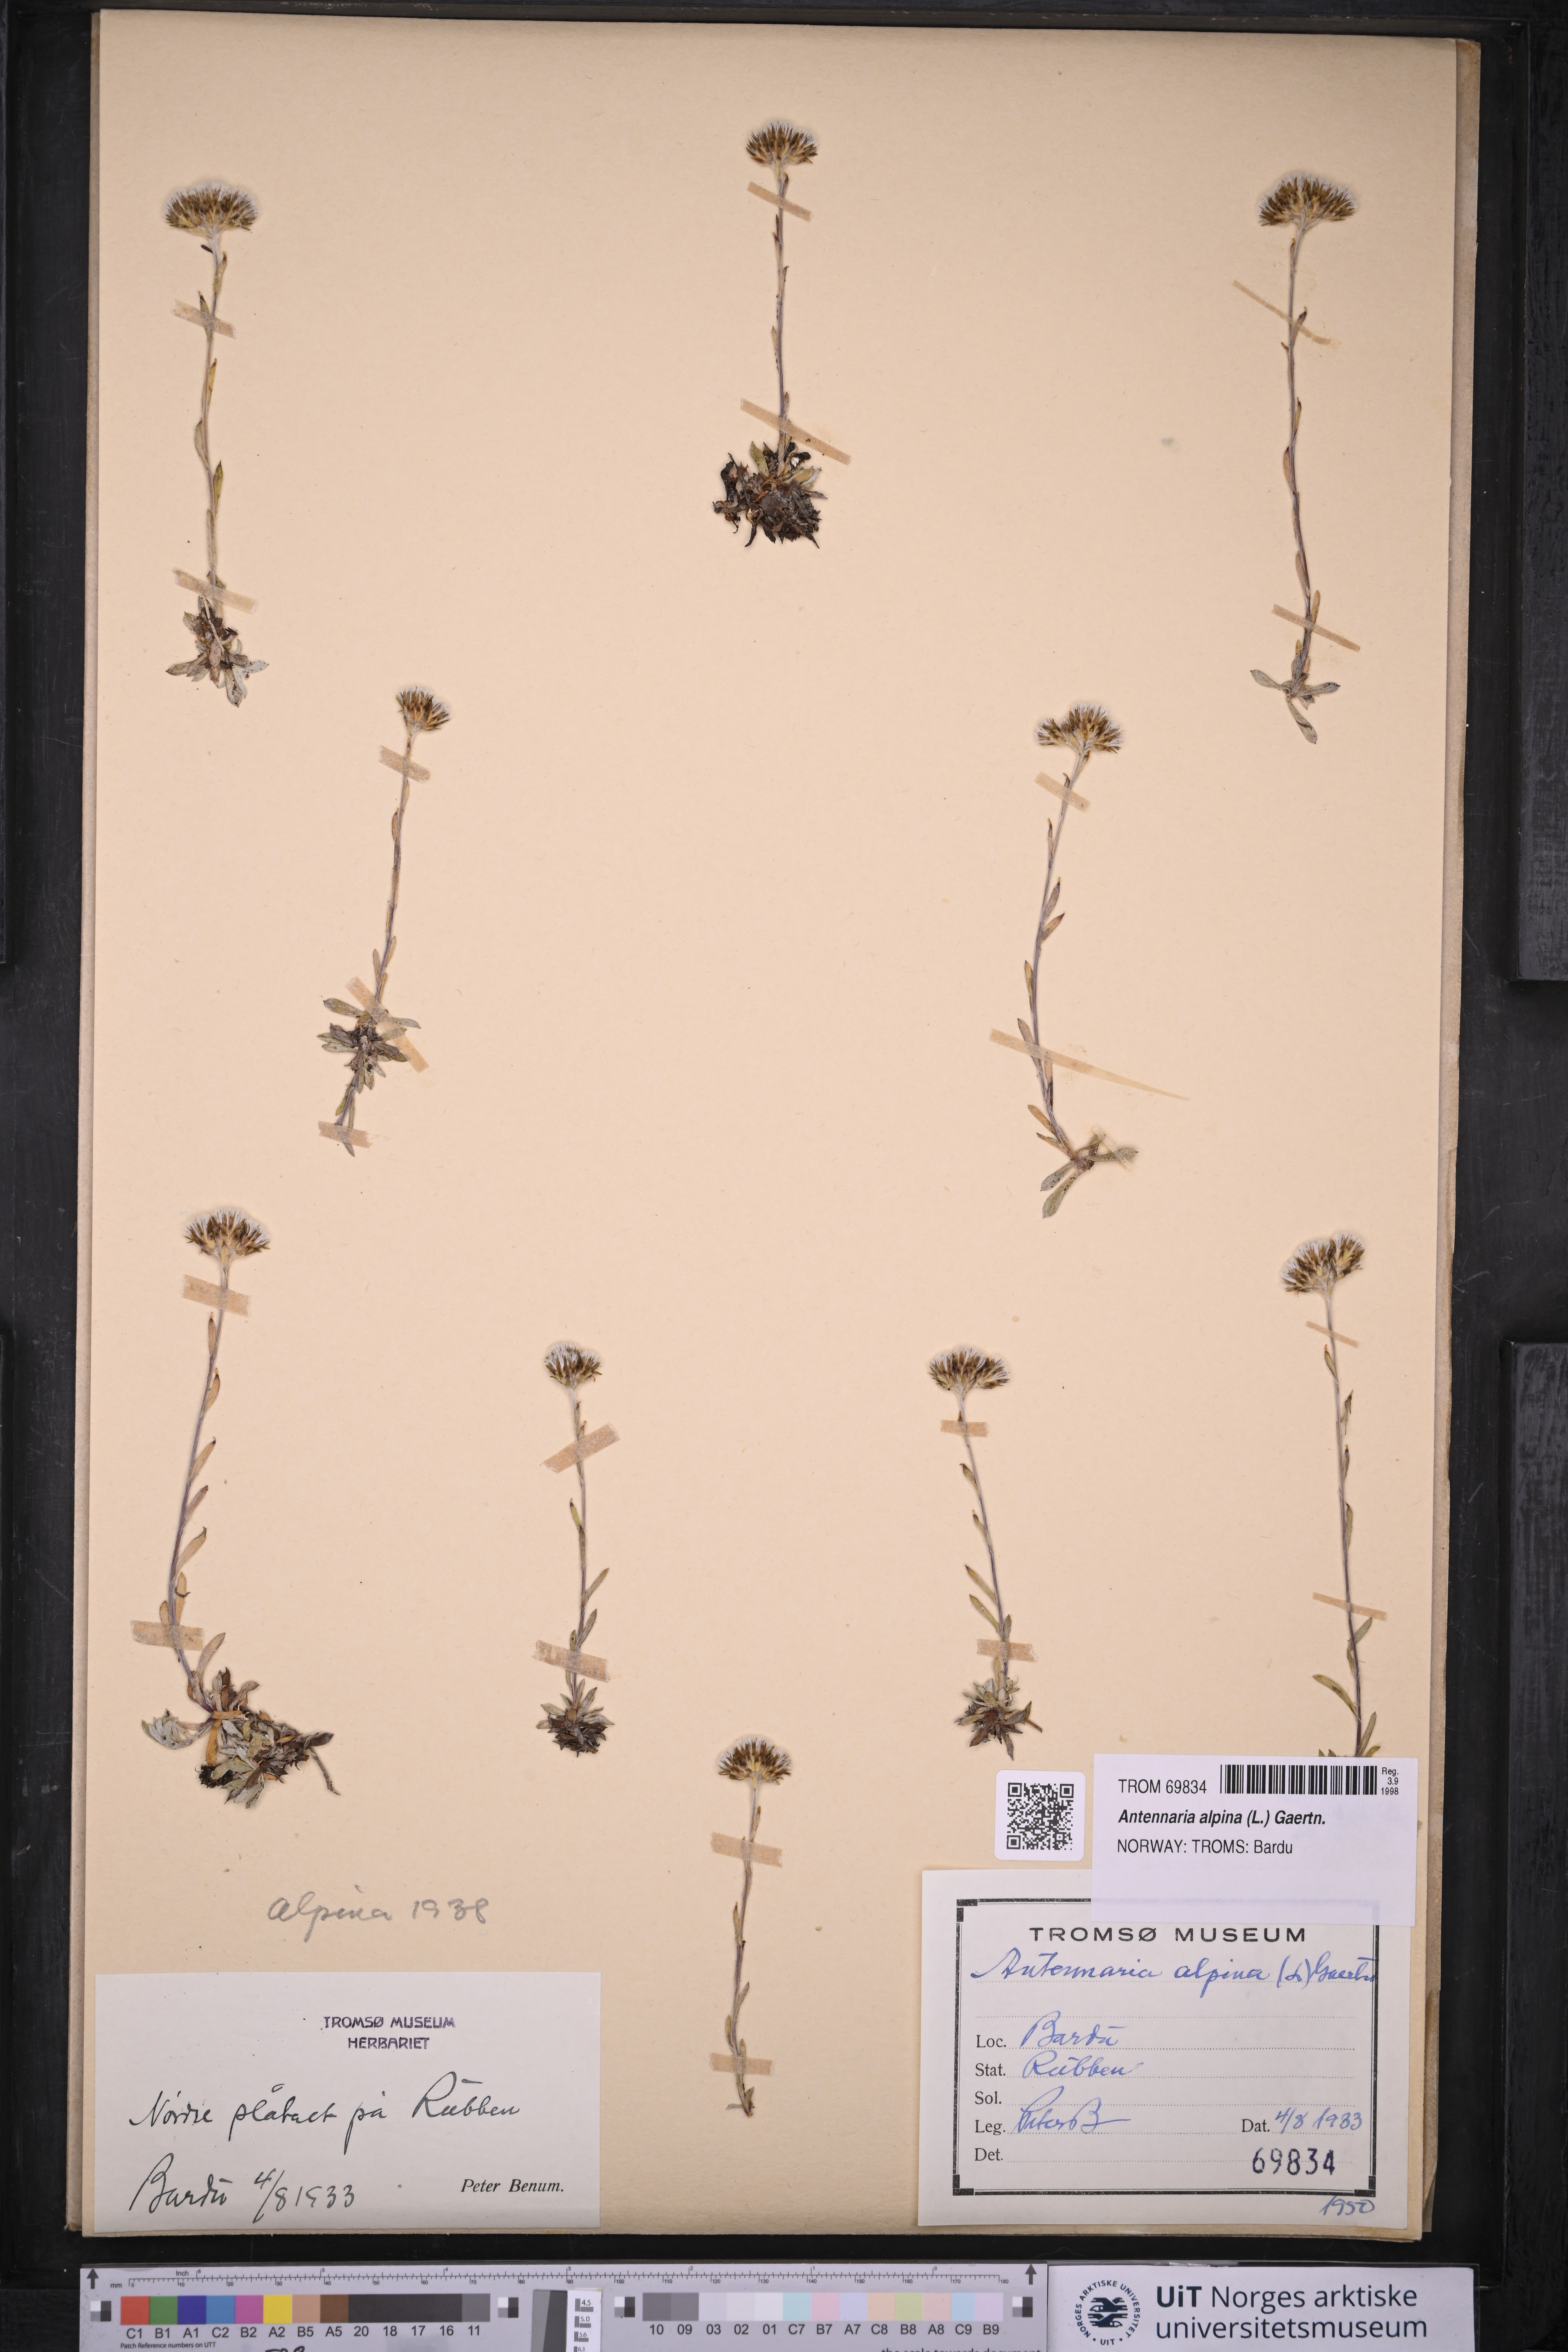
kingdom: Plantae
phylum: Tracheophyta
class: Magnoliopsida
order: Asterales
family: Asteraceae
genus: Antennaria
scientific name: Antennaria alpina
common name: Alpine pussytoes
